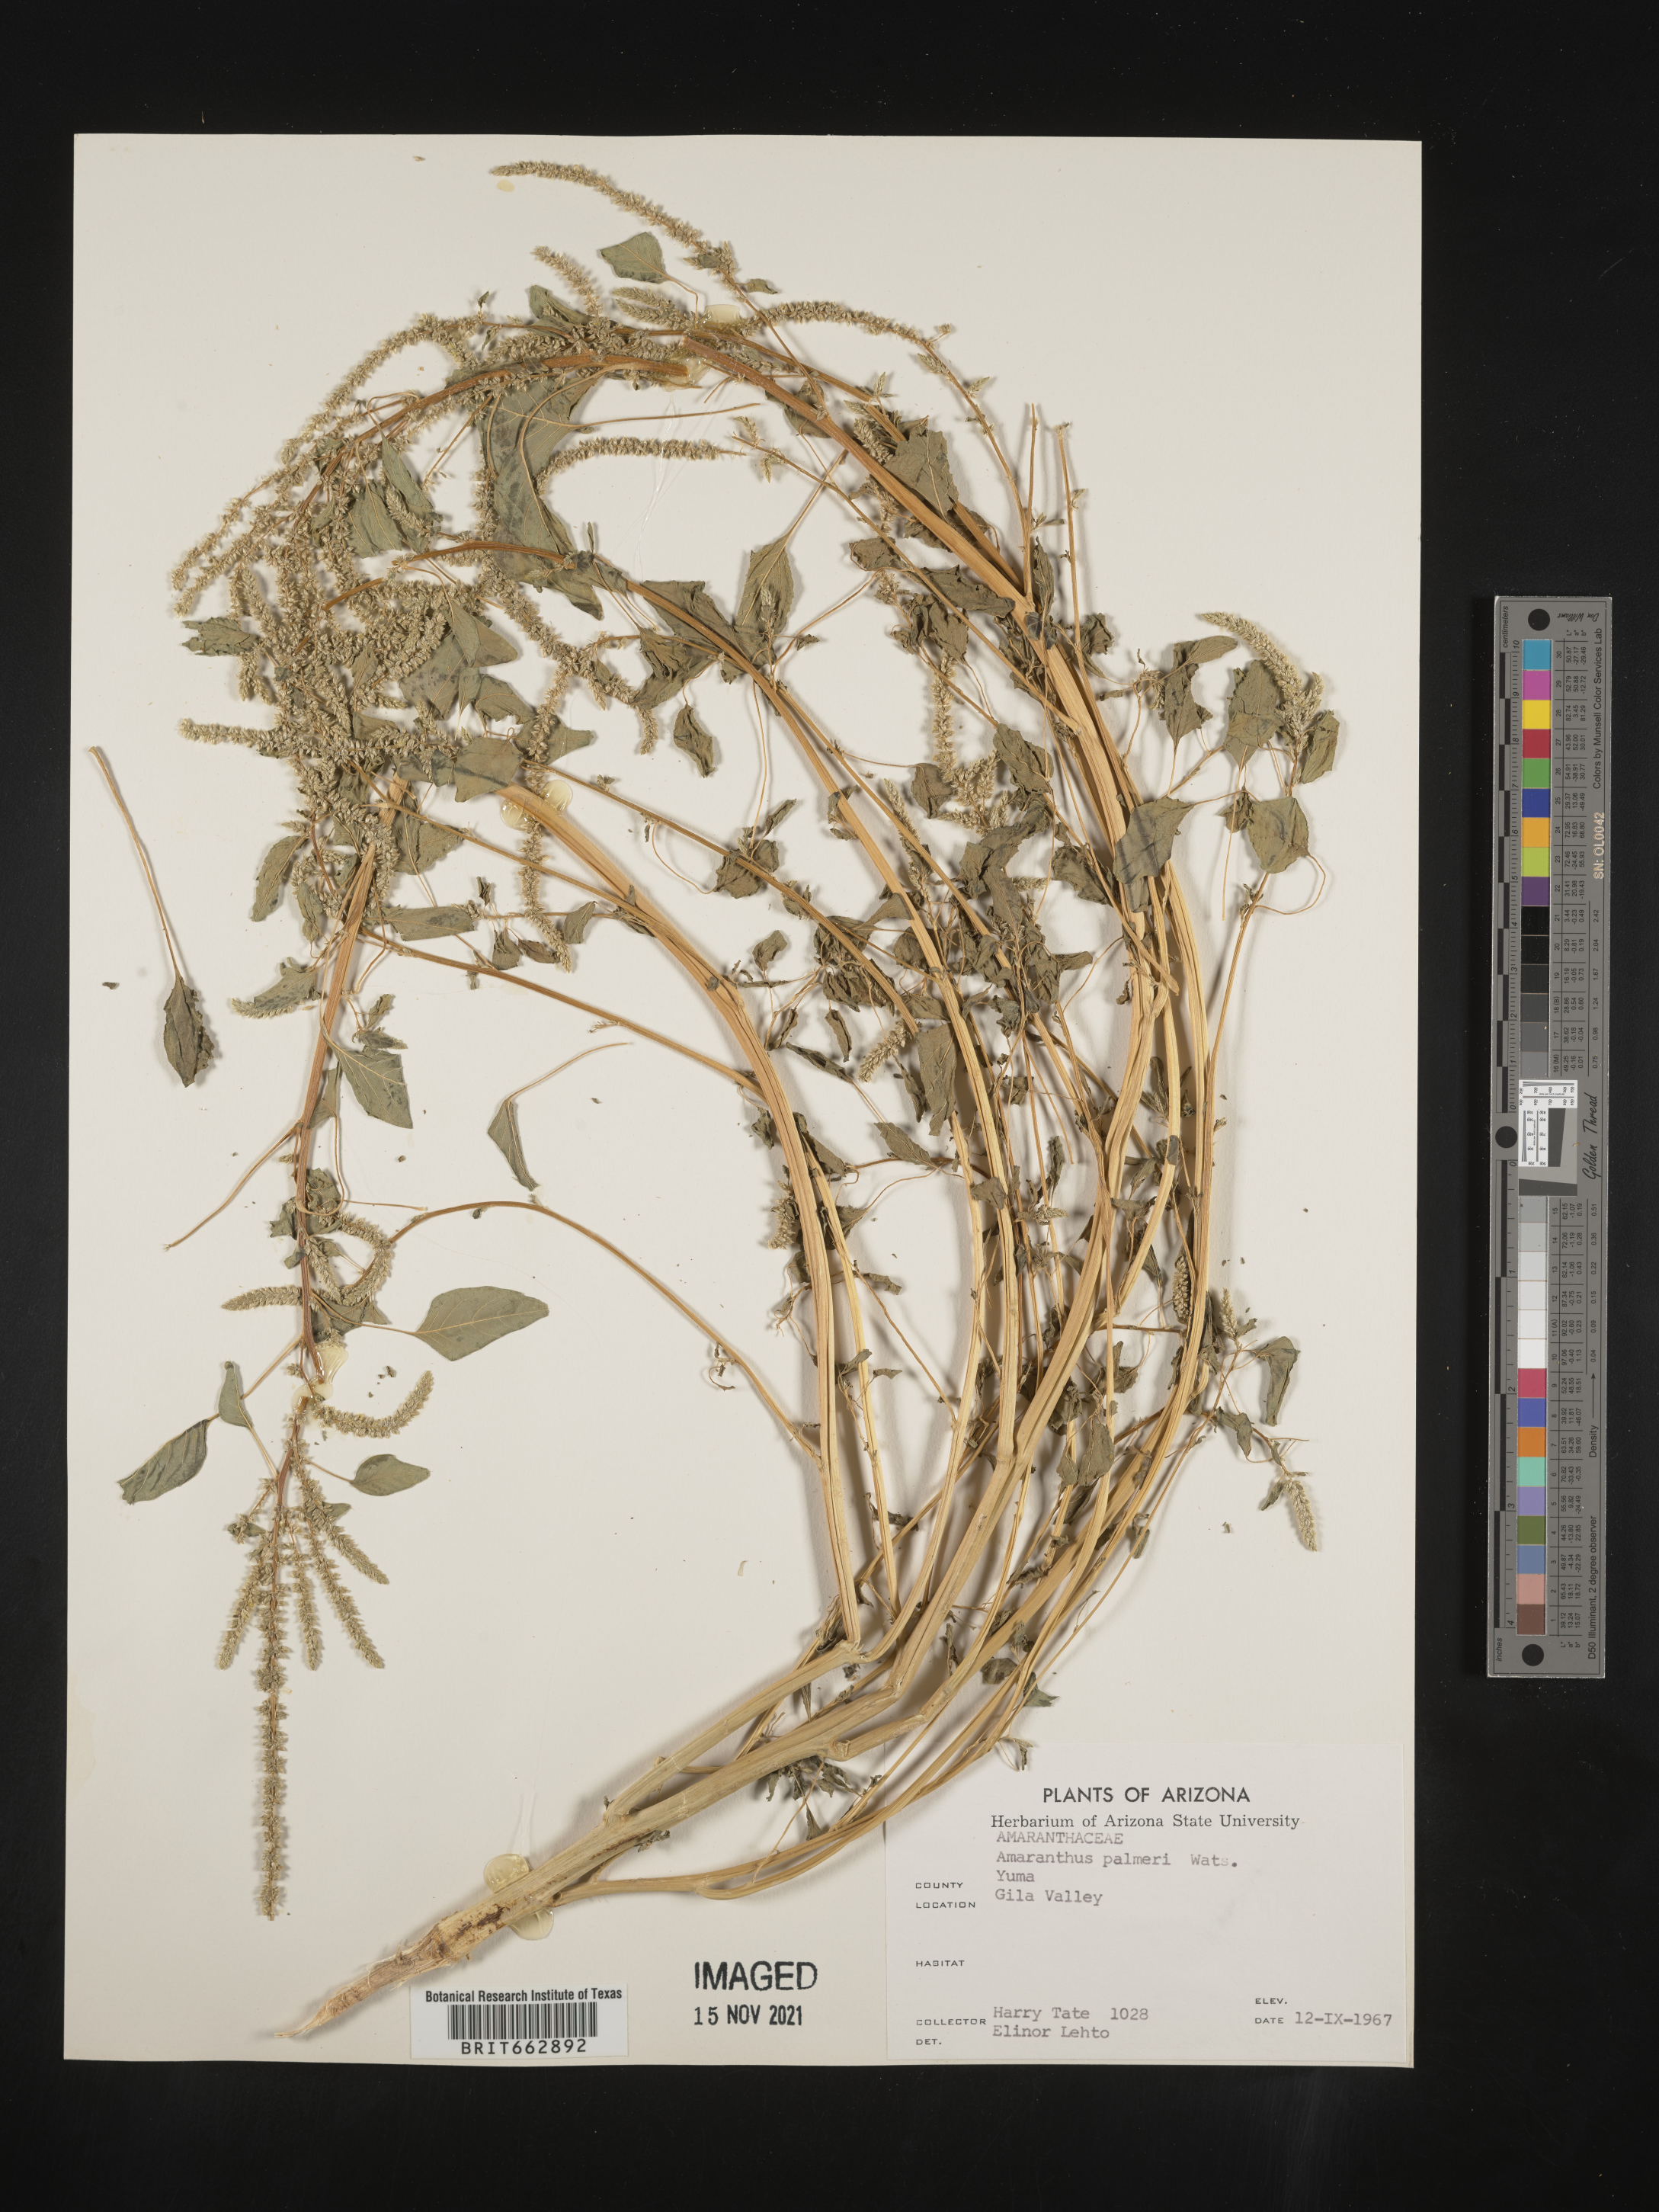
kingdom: Plantae
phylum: Tracheophyta
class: Magnoliopsida
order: Caryophyllales
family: Amaranthaceae
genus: Amaranthus
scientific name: Amaranthus palmeri
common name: Dioecious amaranth
